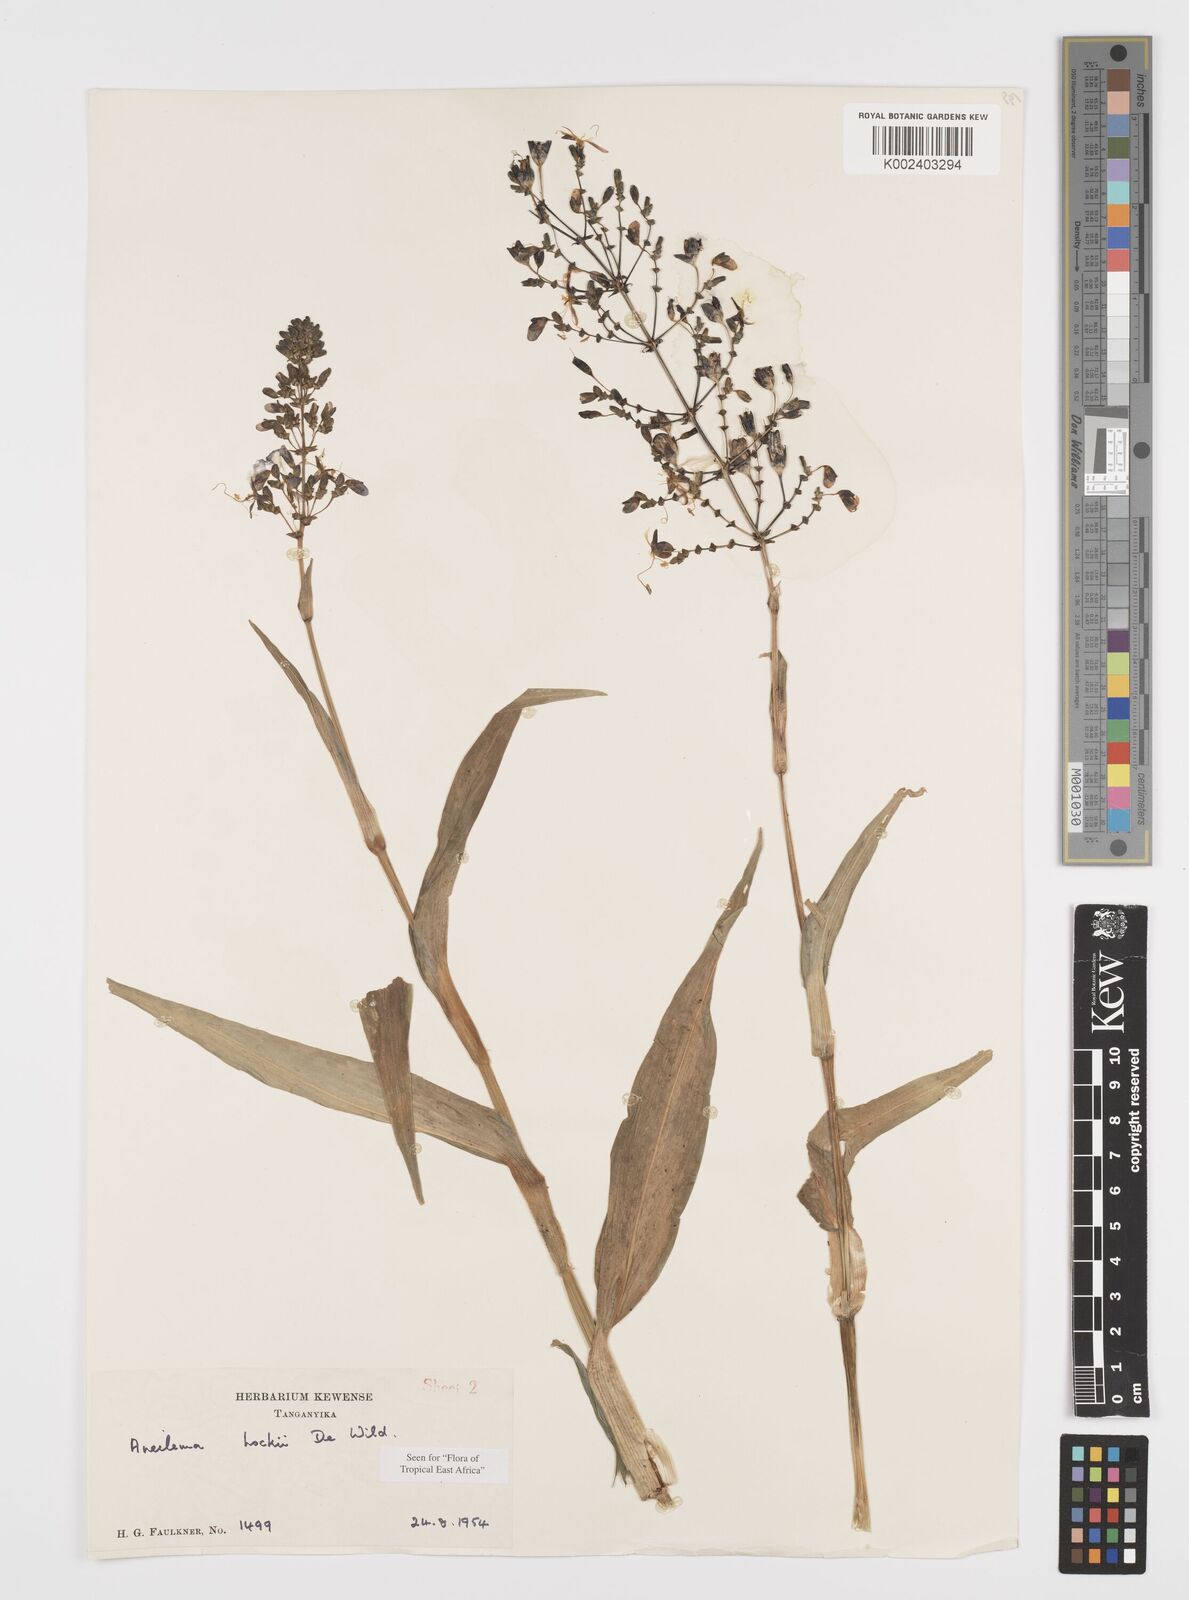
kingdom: Plantae
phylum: Tracheophyta
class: Liliopsida
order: Commelinales
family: Commelinaceae
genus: Aneilema
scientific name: Aneilema hockii
